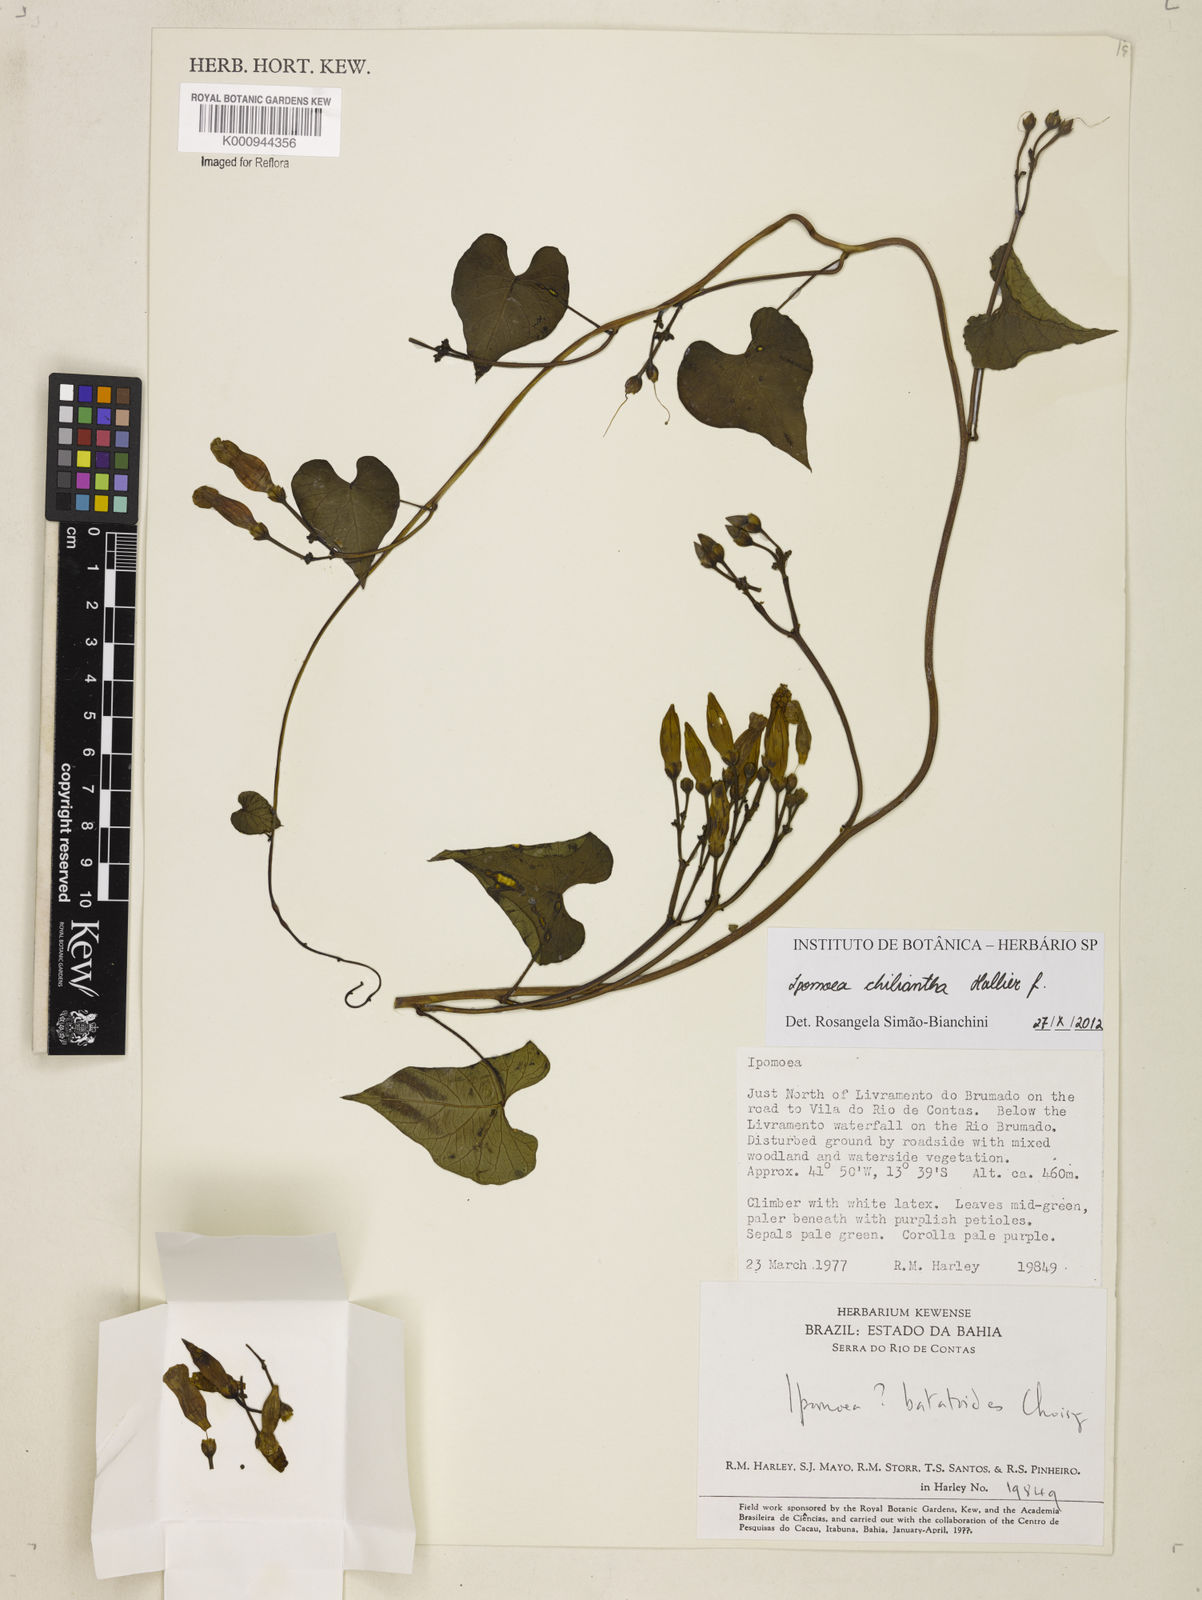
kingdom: Plantae
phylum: Tracheophyta
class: Magnoliopsida
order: Solanales
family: Convolvulaceae
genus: Ipomoea
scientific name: Ipomoea amnicola
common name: Redcenter morning-glory
